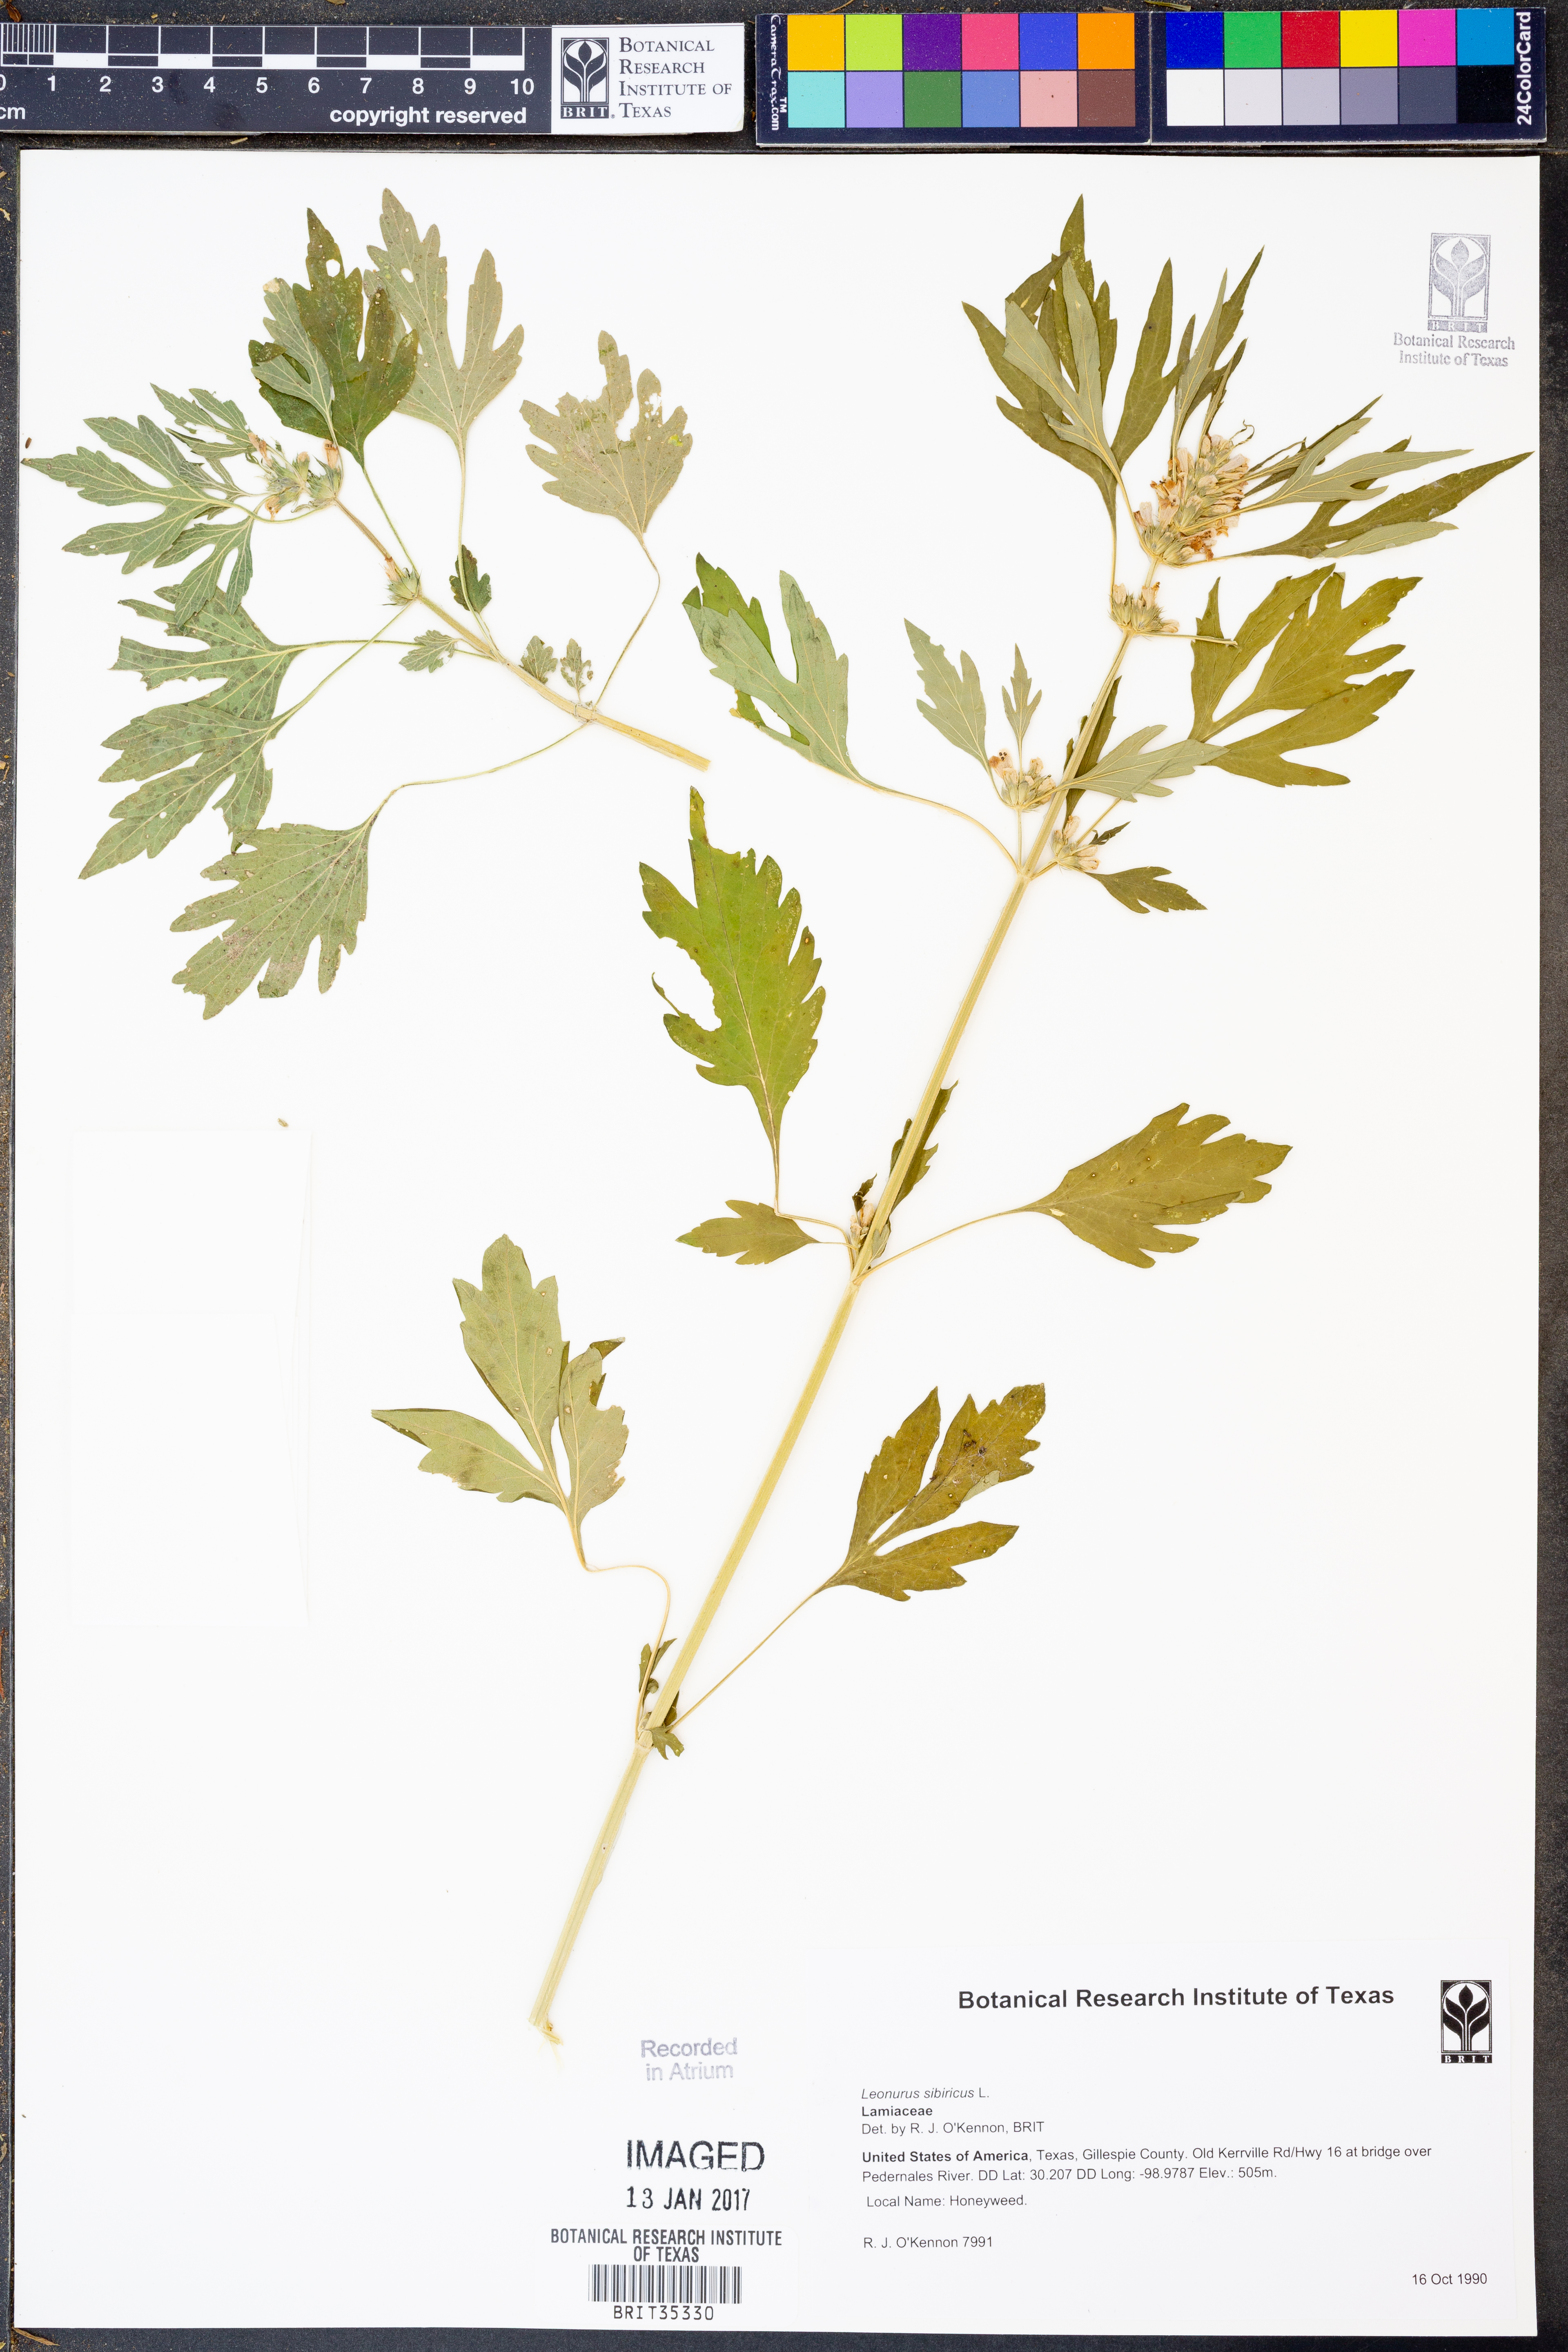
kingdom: Plantae
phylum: Tracheophyta
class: Magnoliopsida
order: Lamiales
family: Lamiaceae
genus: Leonurus
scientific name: Leonurus sibiricus
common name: Honeyweed
